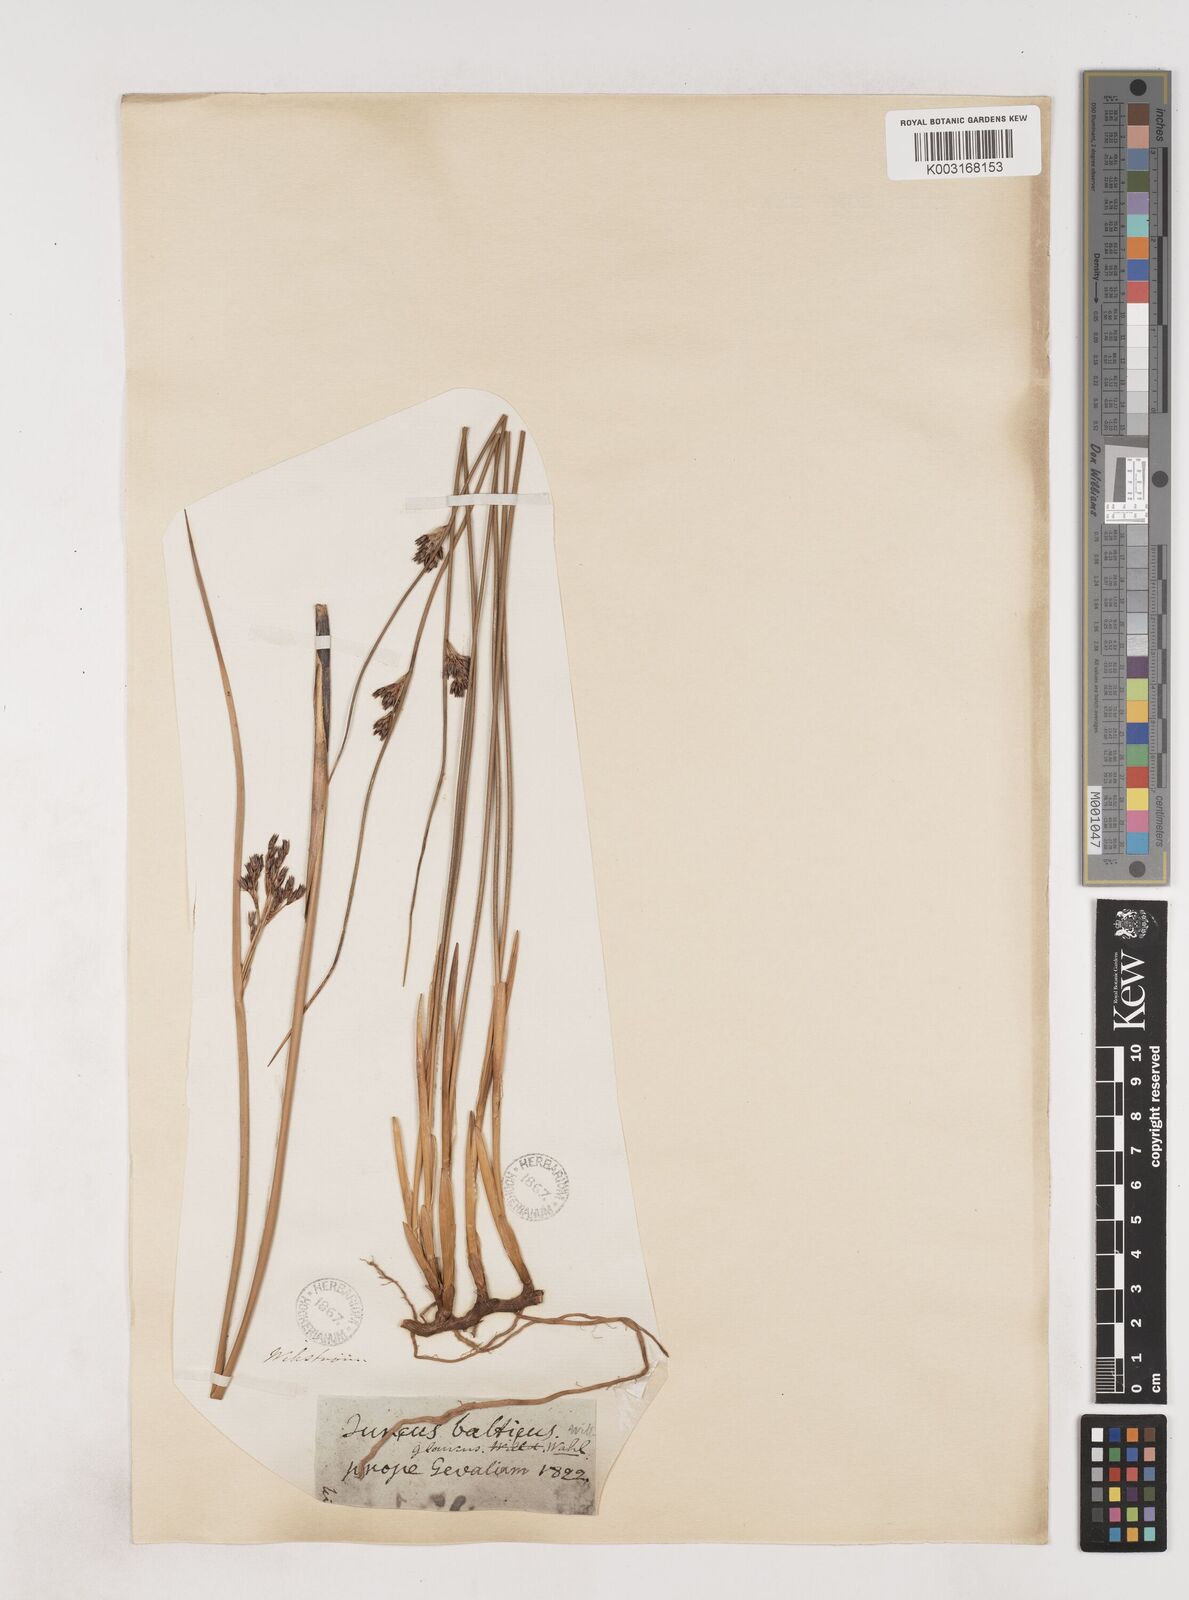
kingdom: Plantae
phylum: Tracheophyta
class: Liliopsida
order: Poales
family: Juncaceae
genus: Juncus
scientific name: Juncus balticus
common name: Baltic rush
